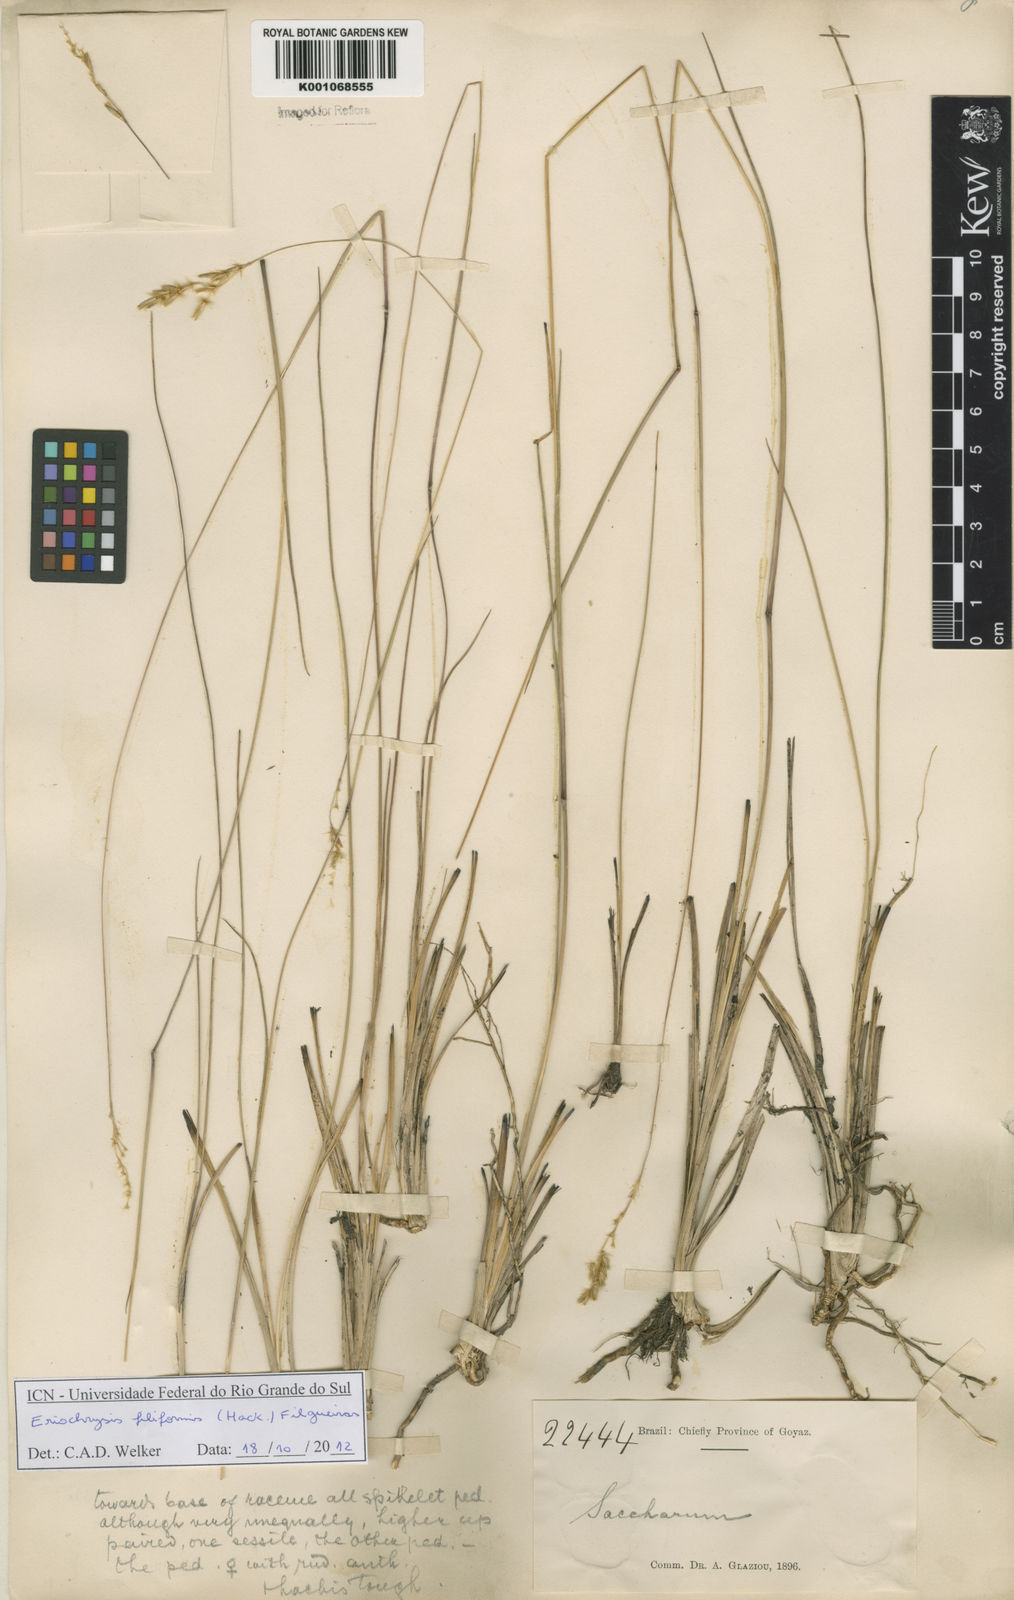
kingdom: Plantae
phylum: Tracheophyta
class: Liliopsida
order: Poales
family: Poaceae
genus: Eriochrysis
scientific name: Eriochrysis filiformis
